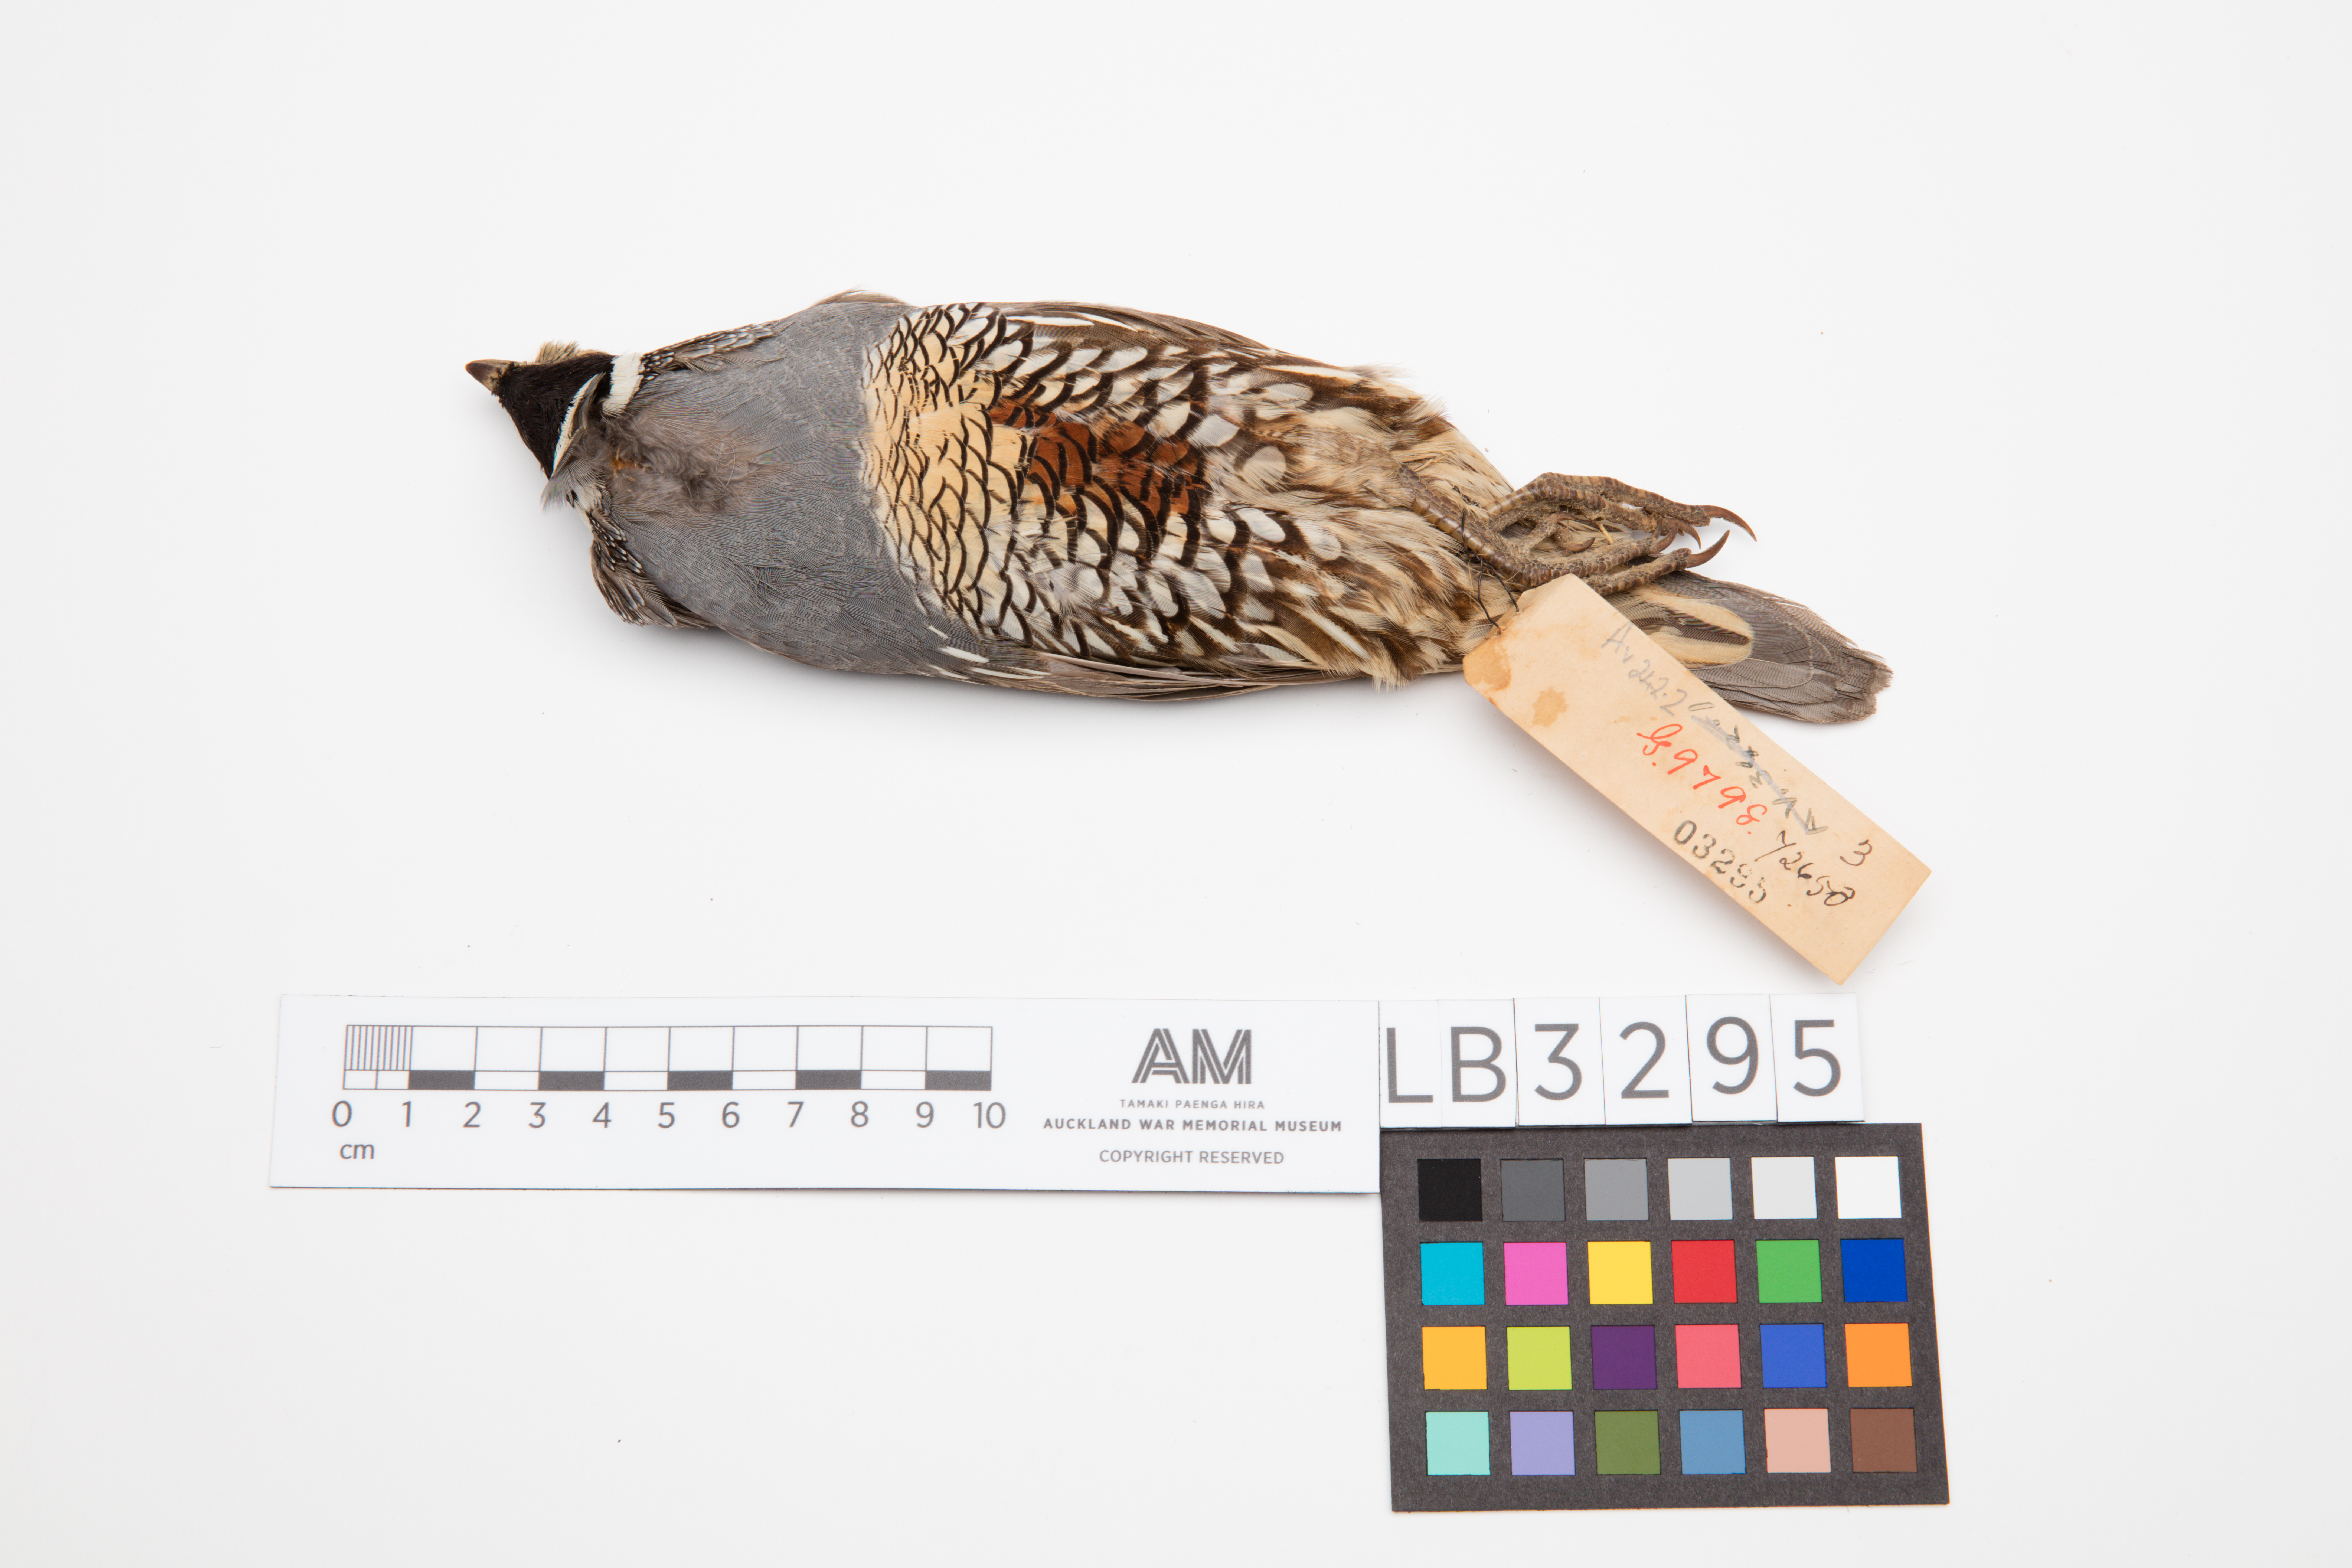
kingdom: Animalia
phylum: Chordata
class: Aves
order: Galliformes
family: Odontophoridae
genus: Callipepla
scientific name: Callipepla californica
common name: California quail
